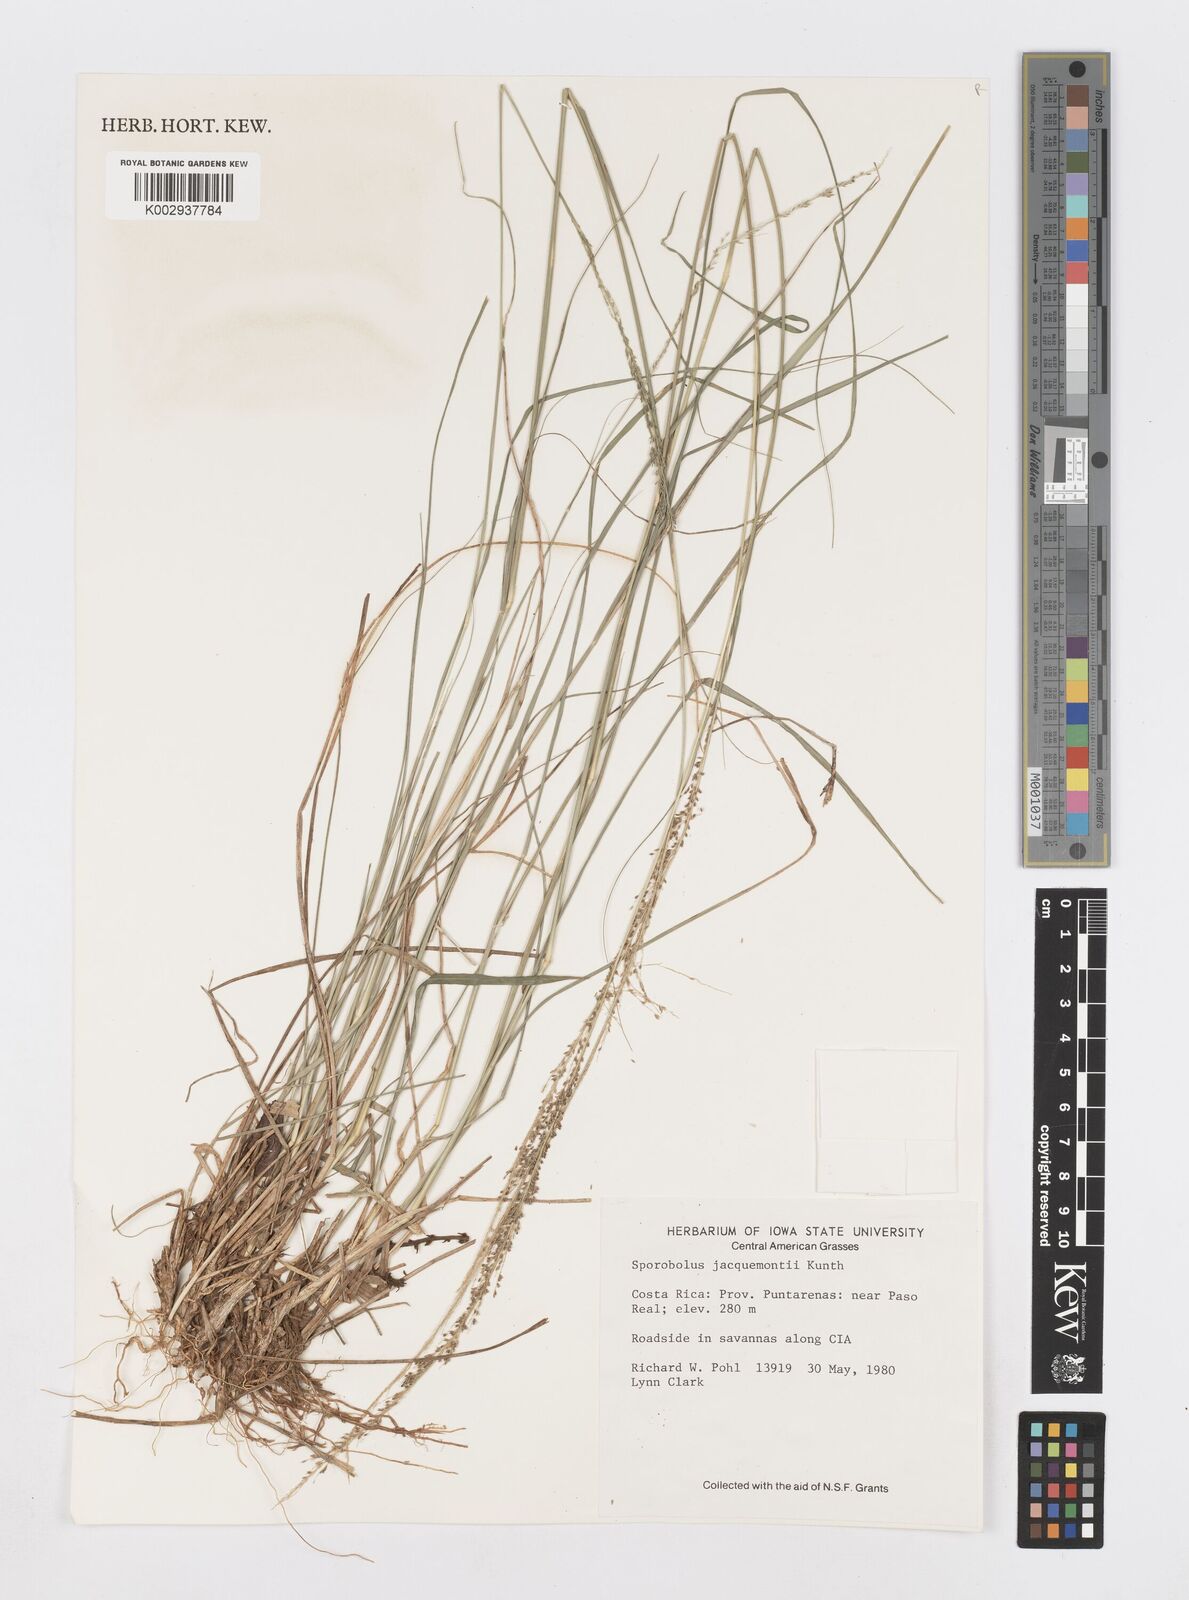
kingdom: Plantae
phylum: Tracheophyta
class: Liliopsida
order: Poales
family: Poaceae
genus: Sporobolus
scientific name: Sporobolus pyramidalis
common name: West indian dropseed
